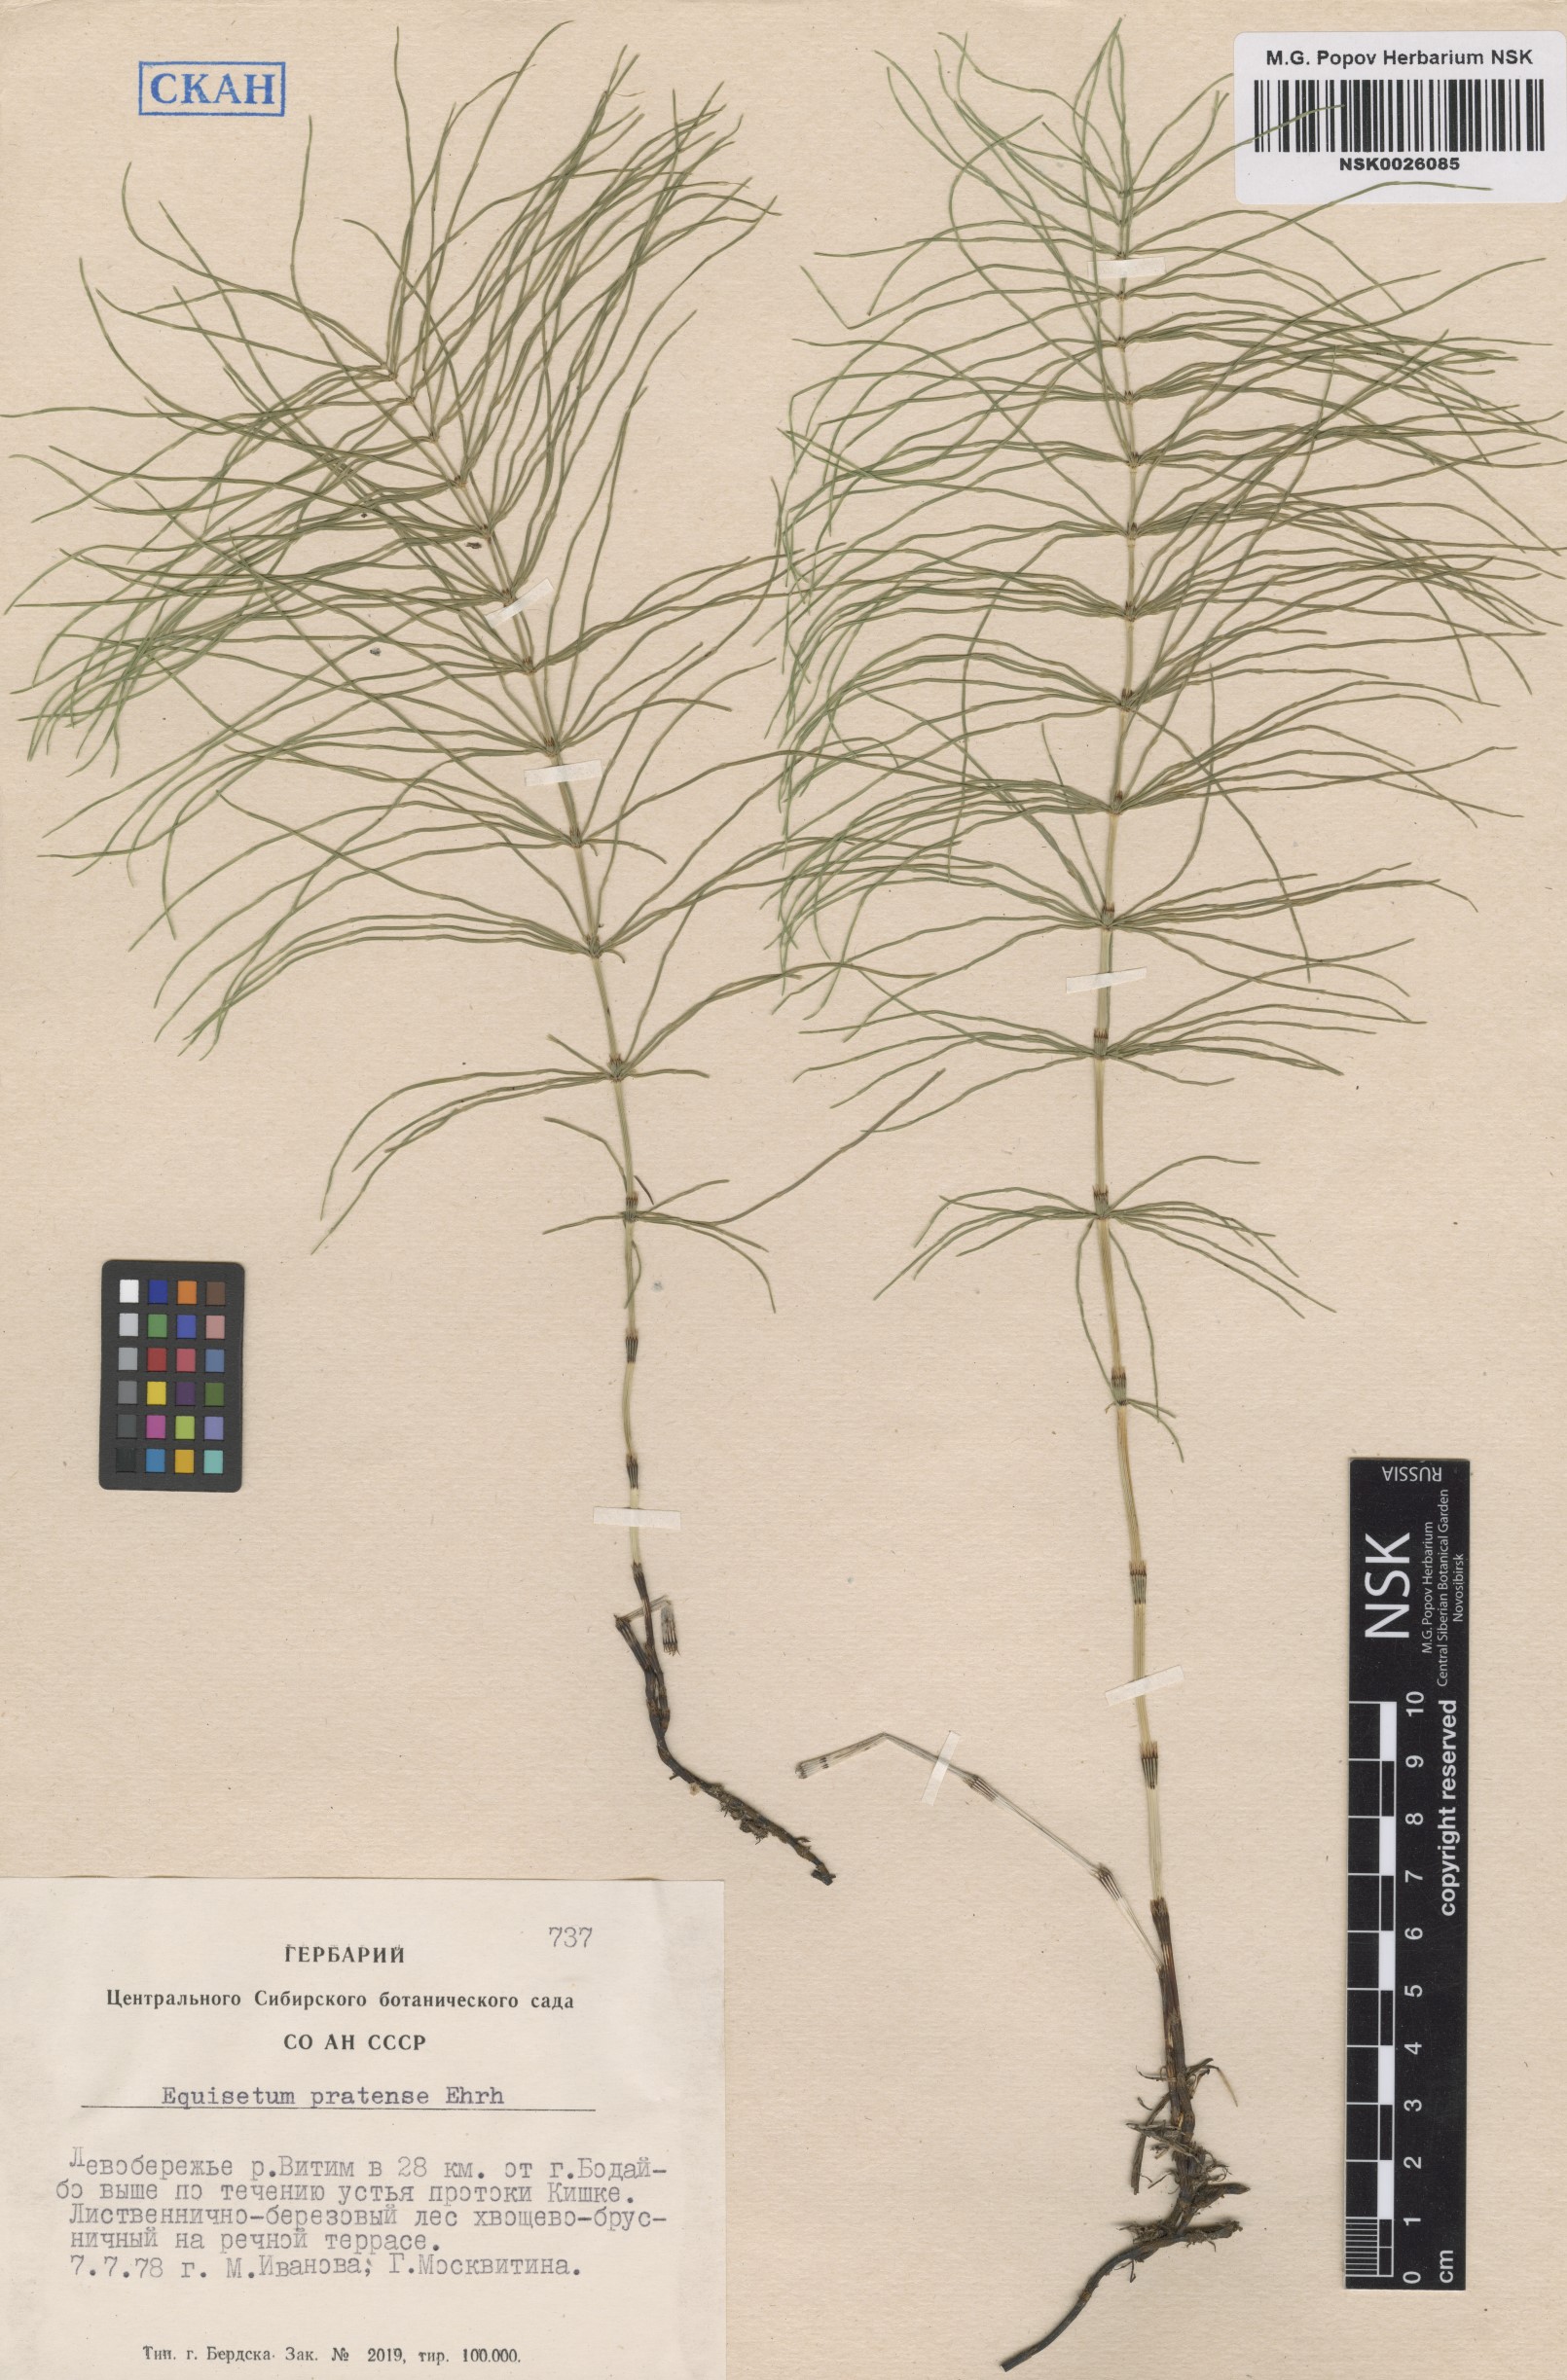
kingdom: Plantae
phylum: Tracheophyta
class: Polypodiopsida
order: Equisetales
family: Equisetaceae
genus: Equisetum
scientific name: Equisetum pratense
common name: Meadow horsetail
